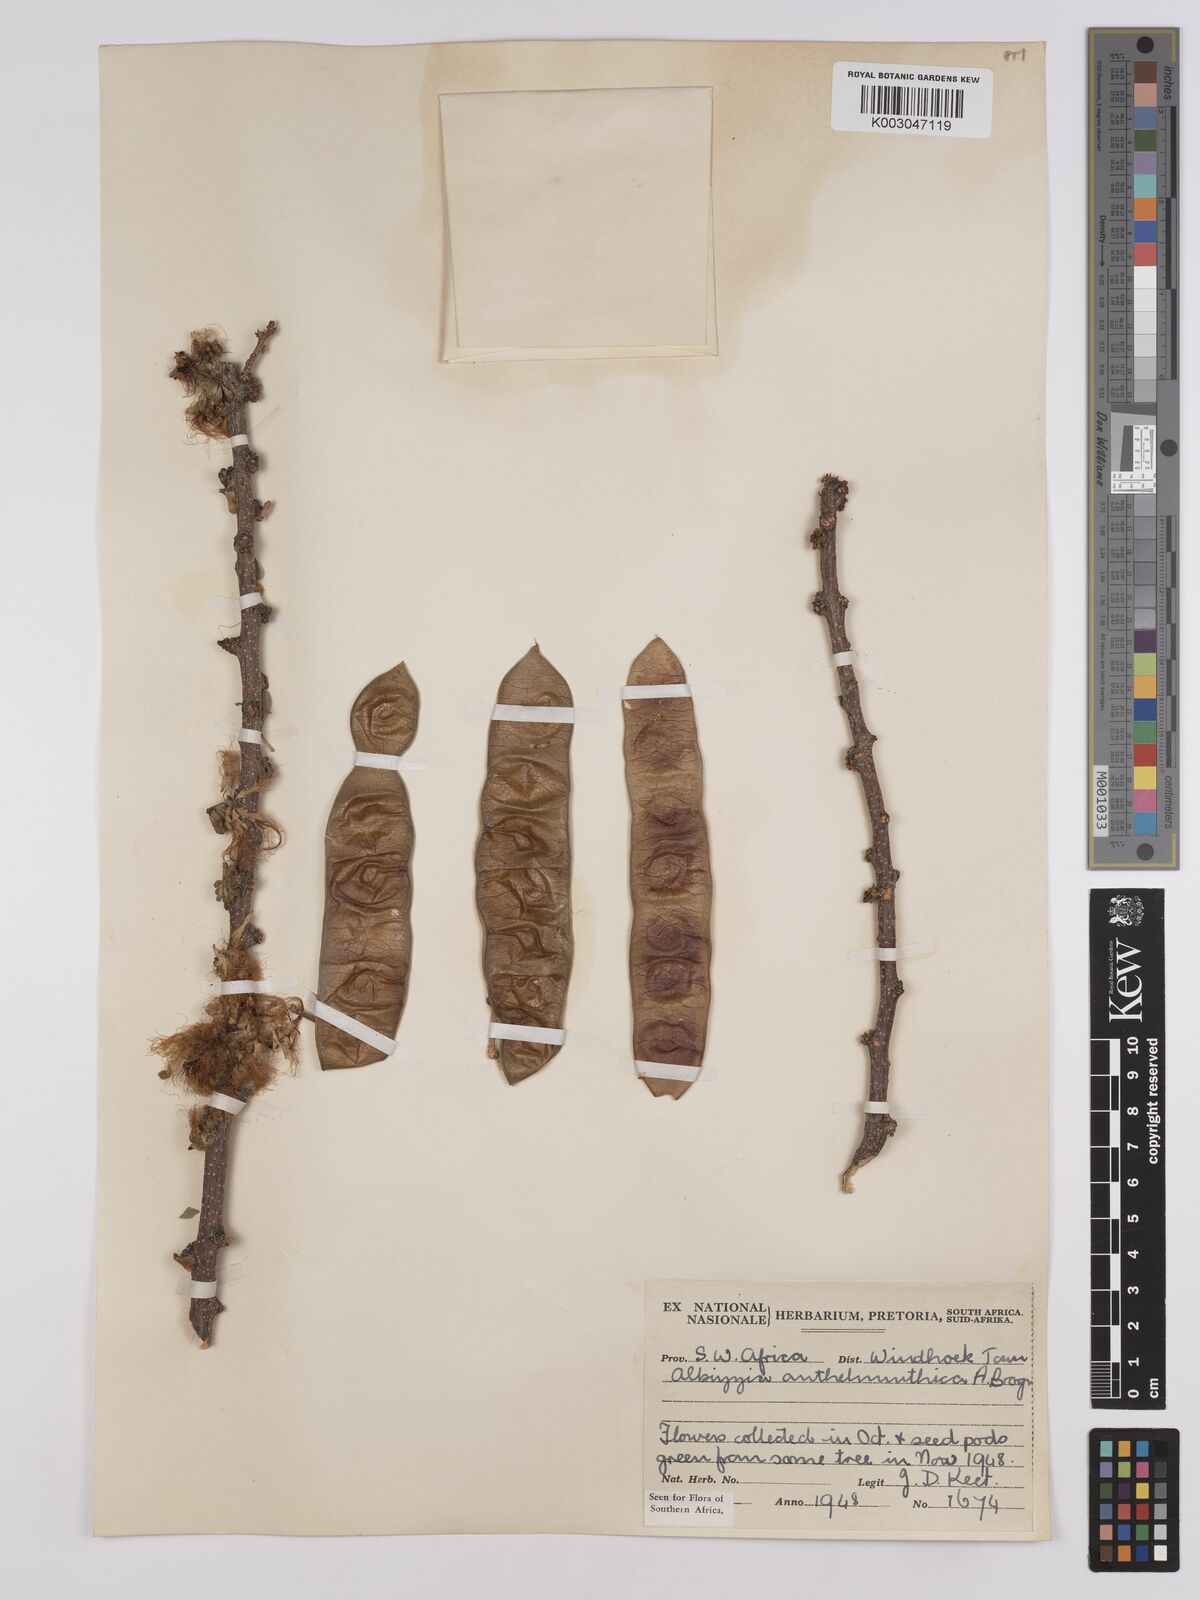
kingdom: Plantae
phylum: Tracheophyta
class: Magnoliopsida
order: Fabales
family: Fabaceae
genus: Albizia
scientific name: Albizia anthelmintica
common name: Worm-bark false-thorn
